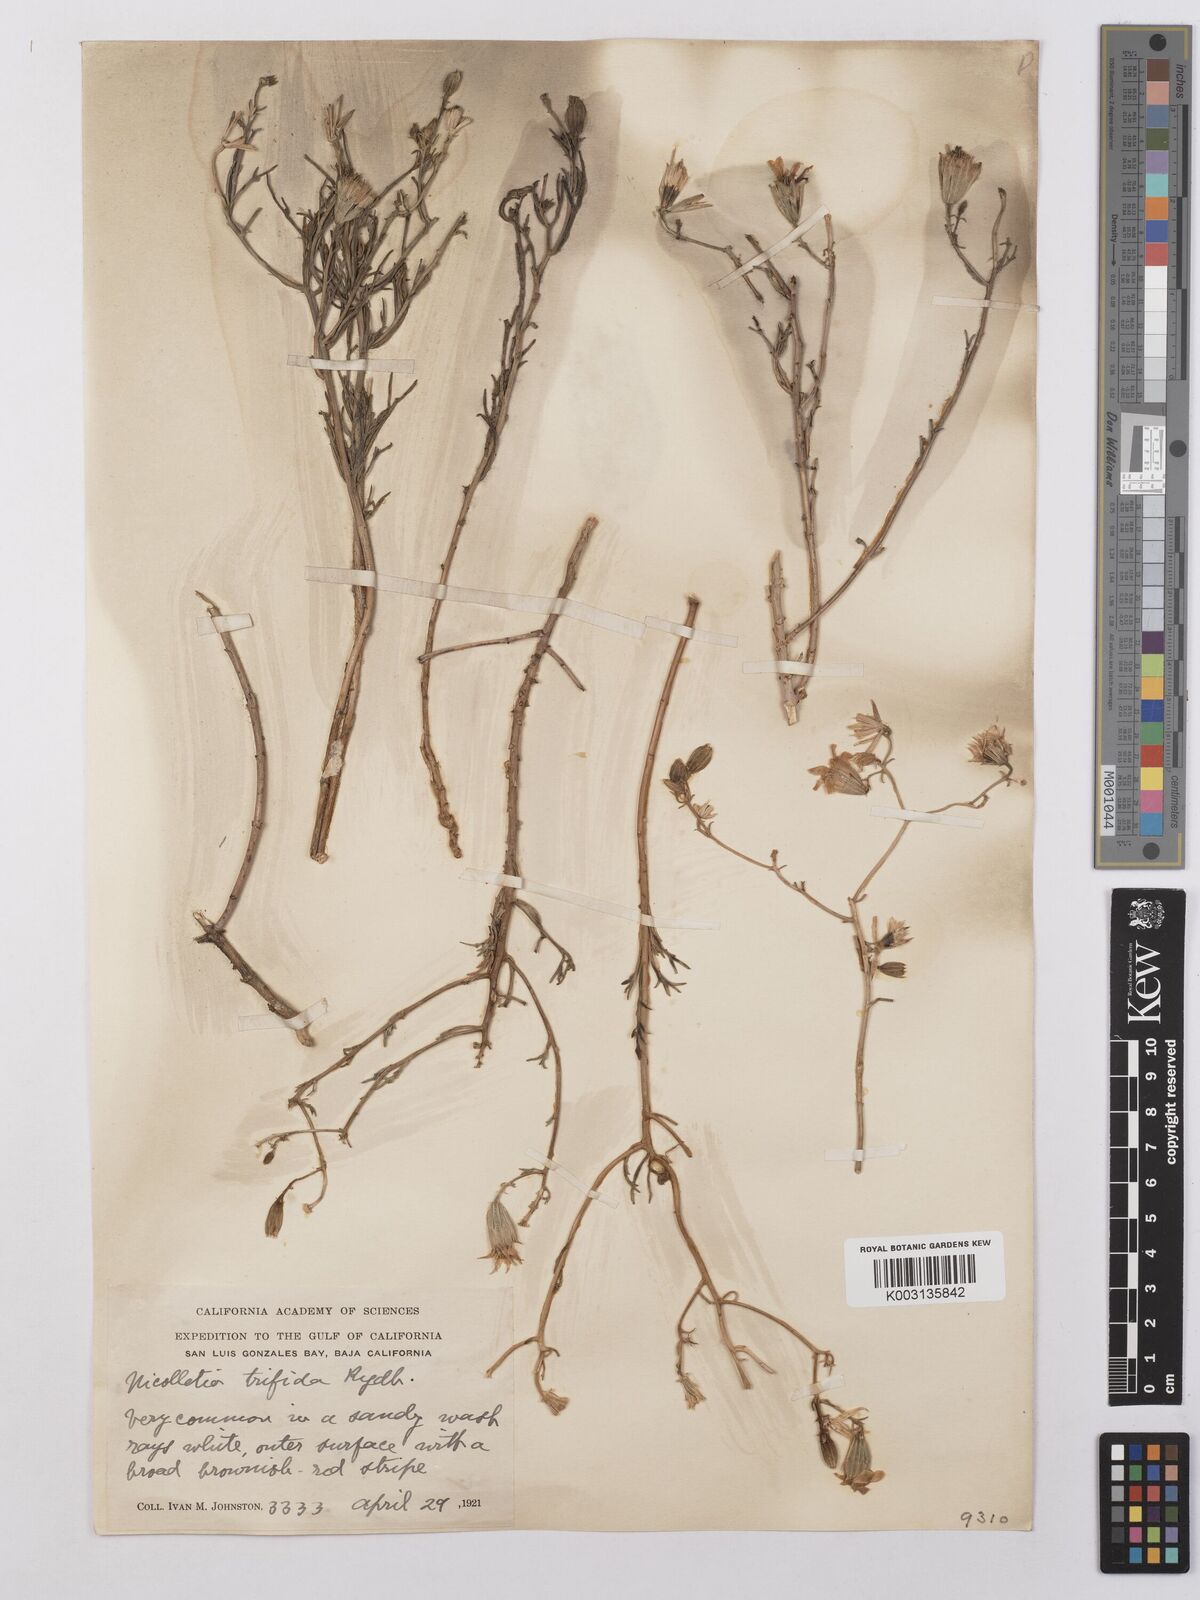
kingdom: Plantae
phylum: Tracheophyta
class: Magnoliopsida
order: Asterales
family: Asteraceae
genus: Nicolletia
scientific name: Nicolletia trifida
